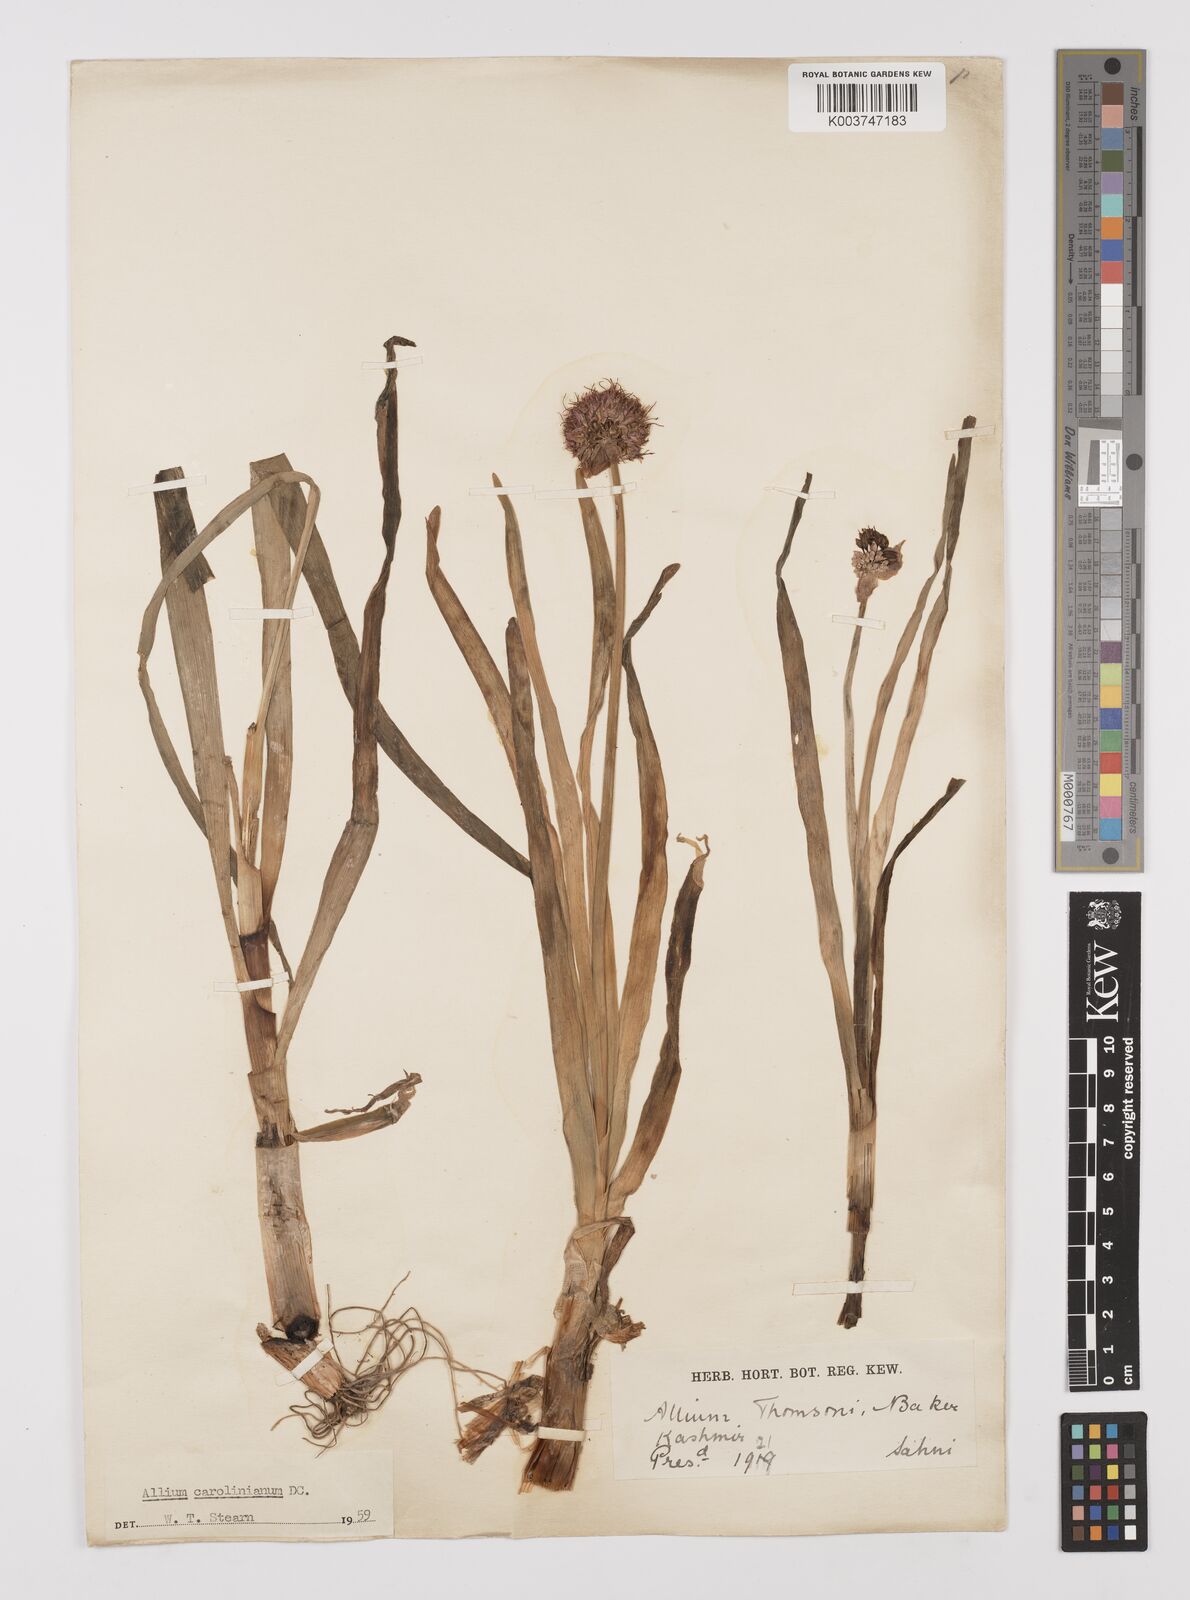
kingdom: Plantae
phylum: Tracheophyta
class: Liliopsida
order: Asparagales
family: Amaryllidaceae
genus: Allium
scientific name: Allium carolinianum
